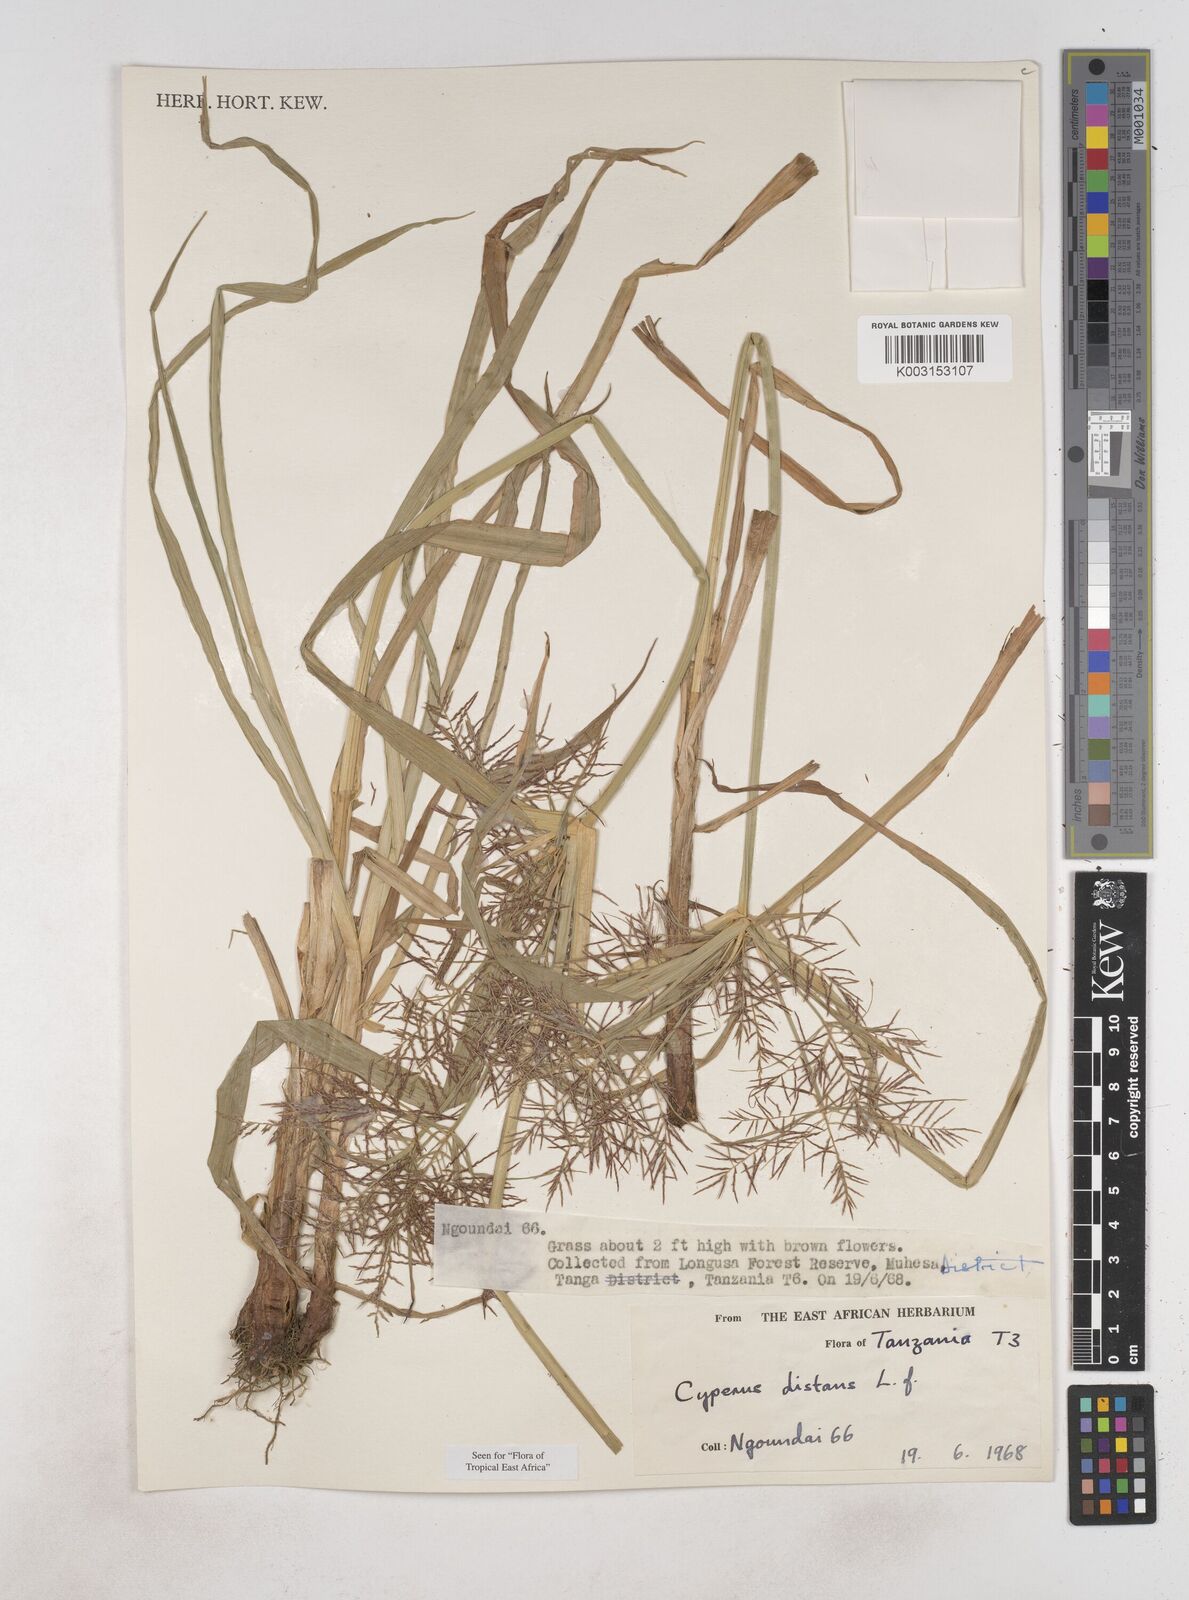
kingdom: Plantae
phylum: Tracheophyta
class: Liliopsida
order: Poales
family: Cyperaceae
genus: Cyperus
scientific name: Cyperus distans
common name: Slender cyperus
